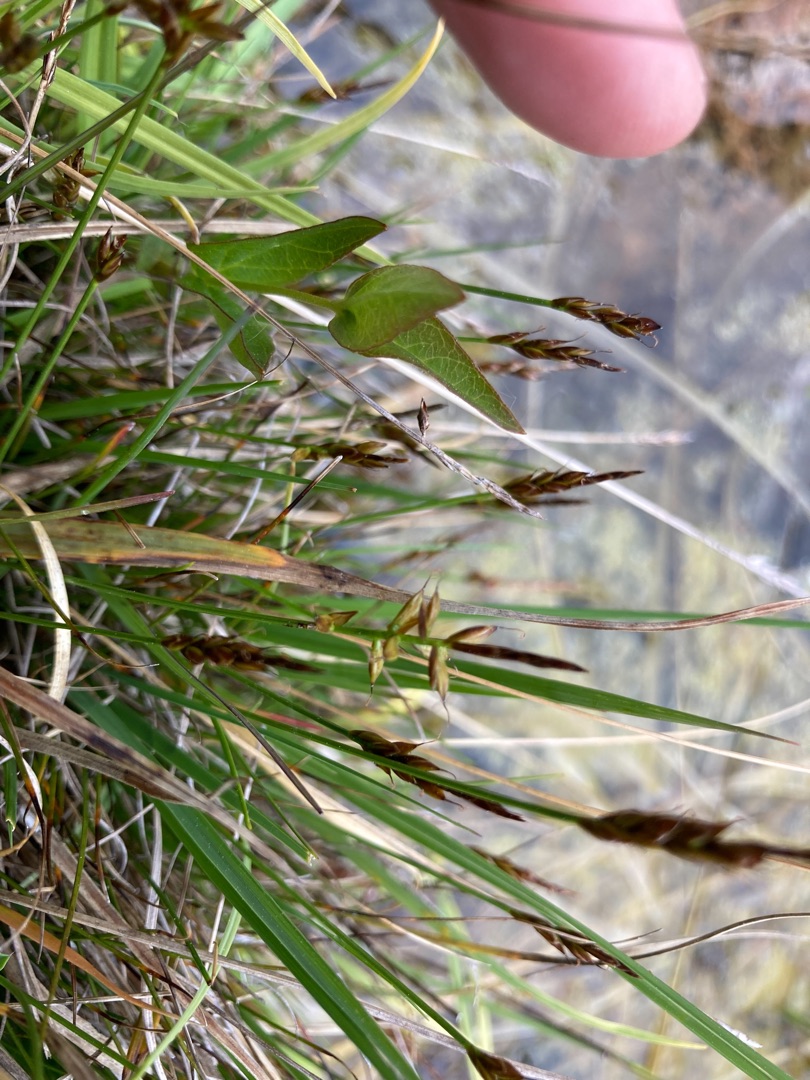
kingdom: Plantae
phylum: Tracheophyta
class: Liliopsida
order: Poales
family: Cyperaceae
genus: Carex
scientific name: Carex pulicaris
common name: Loppe-star
